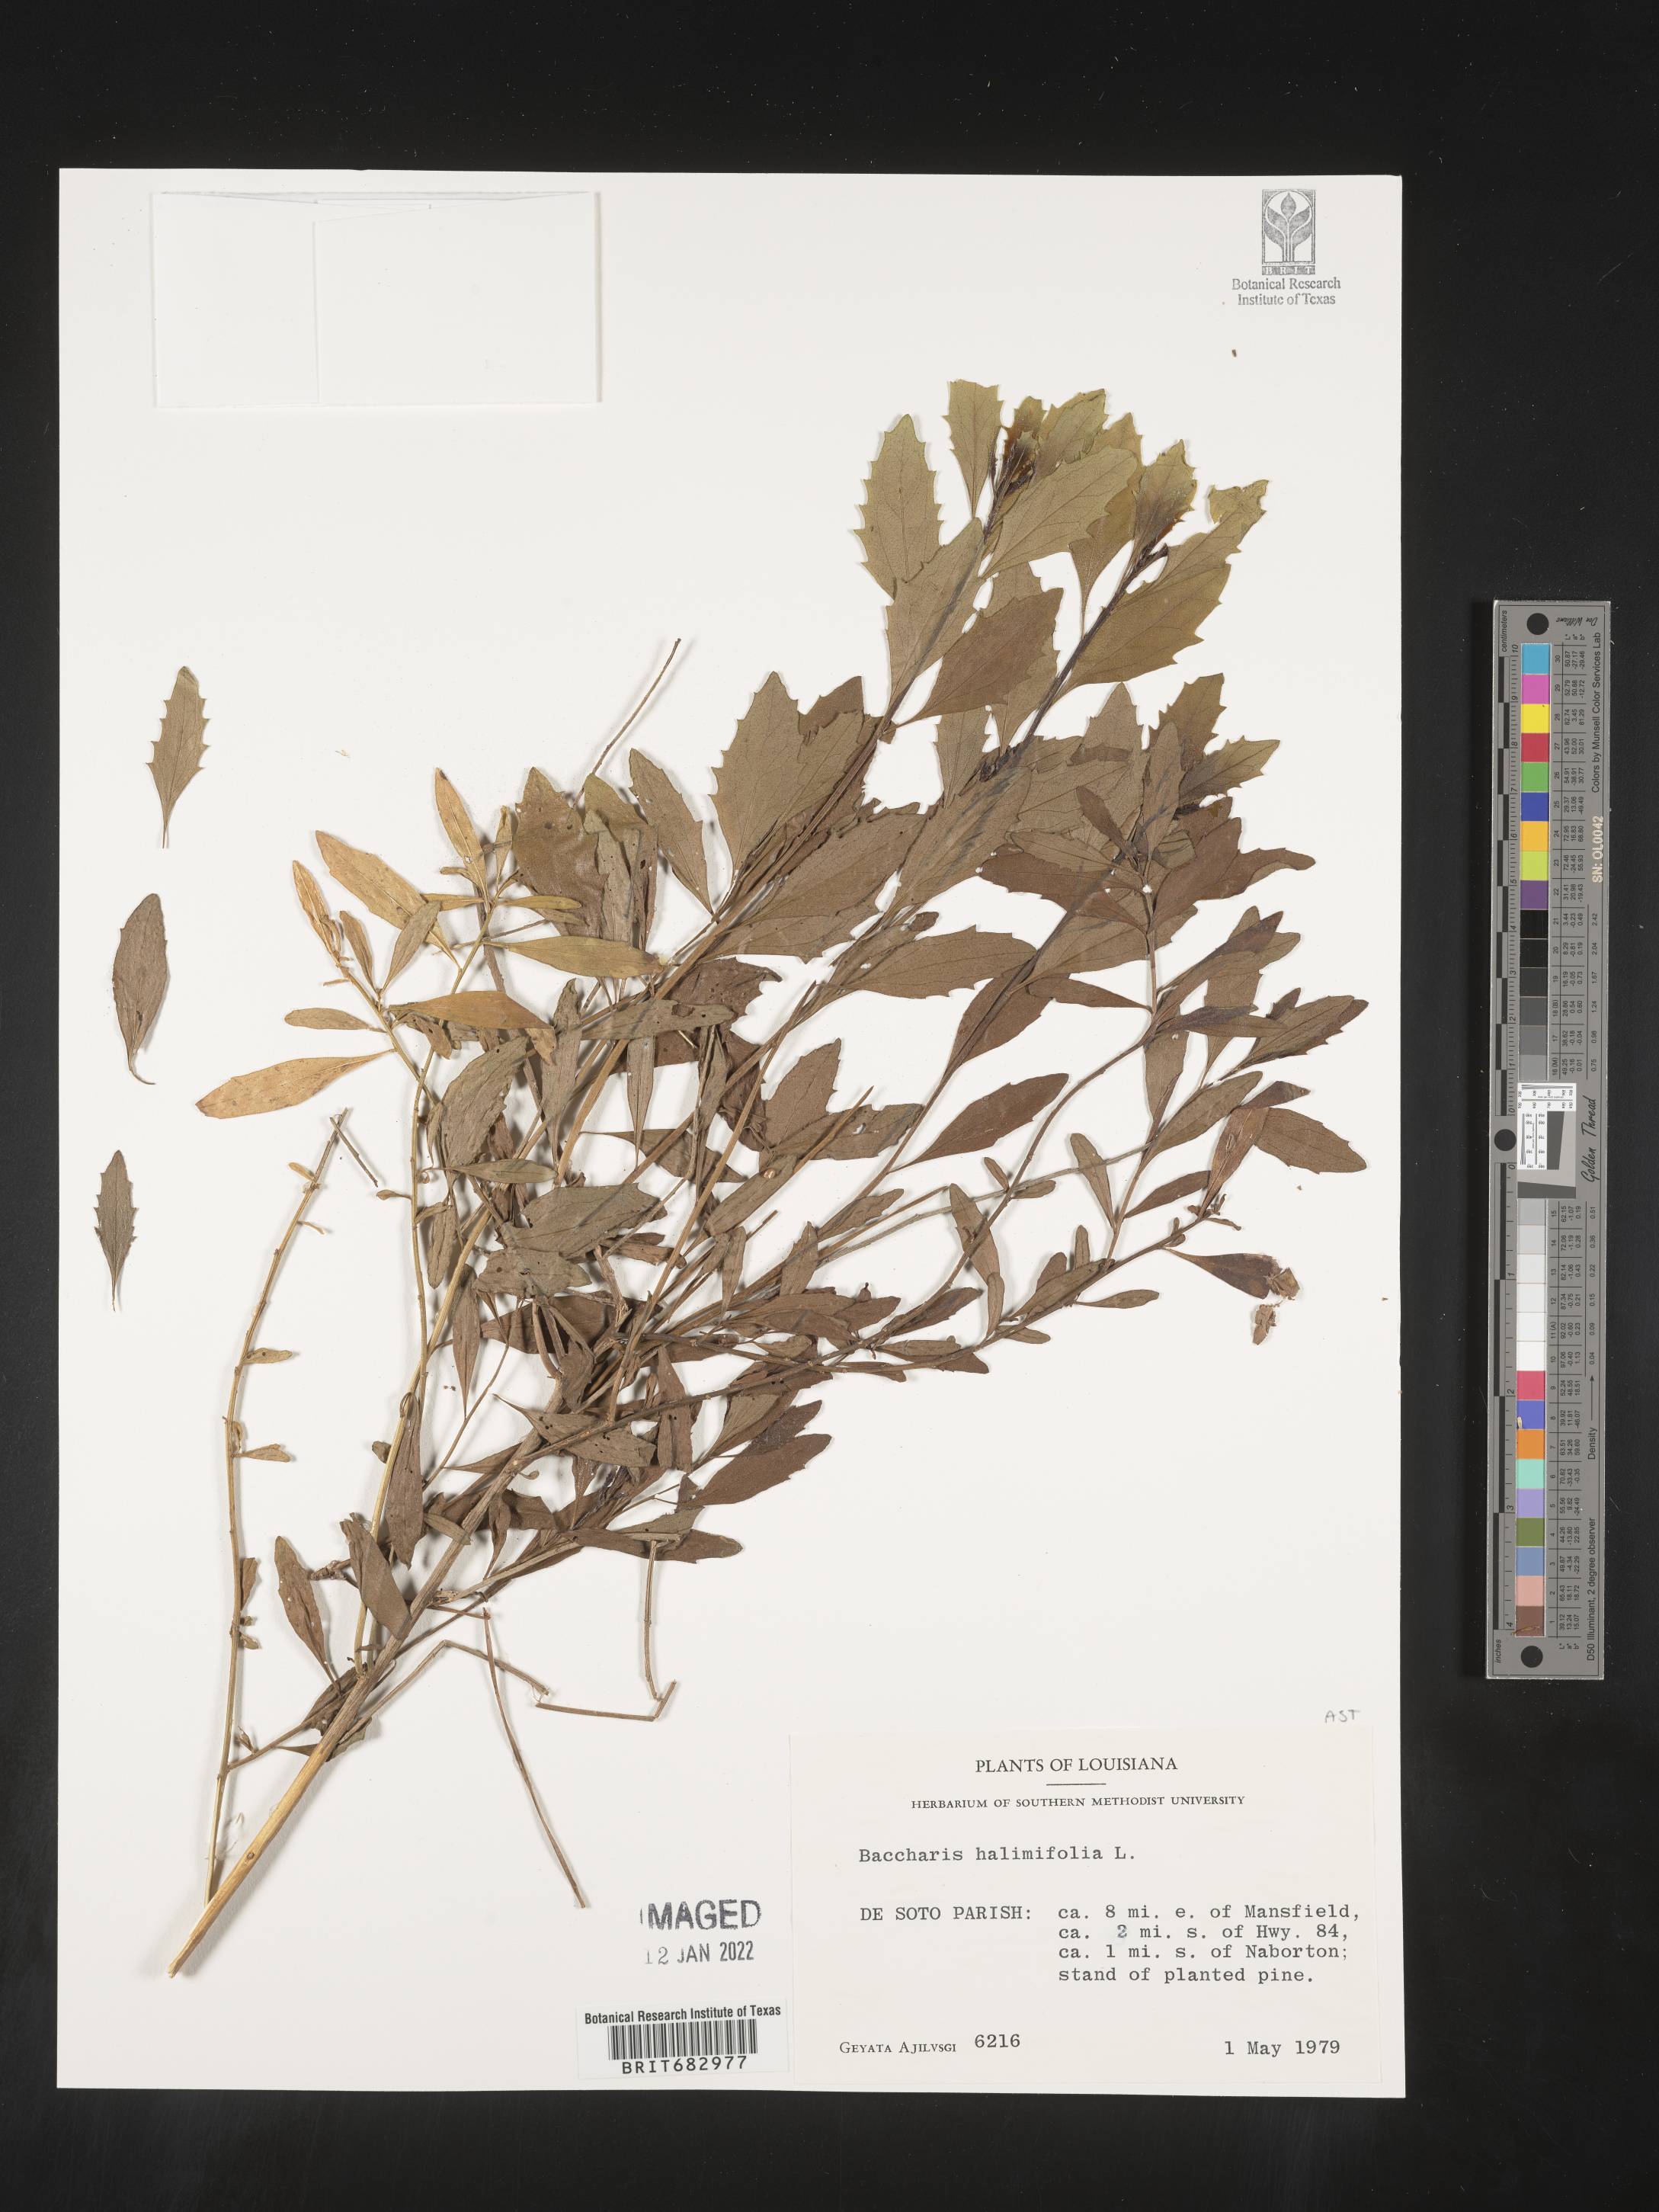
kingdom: Plantae
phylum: Tracheophyta
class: Magnoliopsida
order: Asterales
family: Asteraceae
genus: Nidorella
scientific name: Nidorella ivifolia
